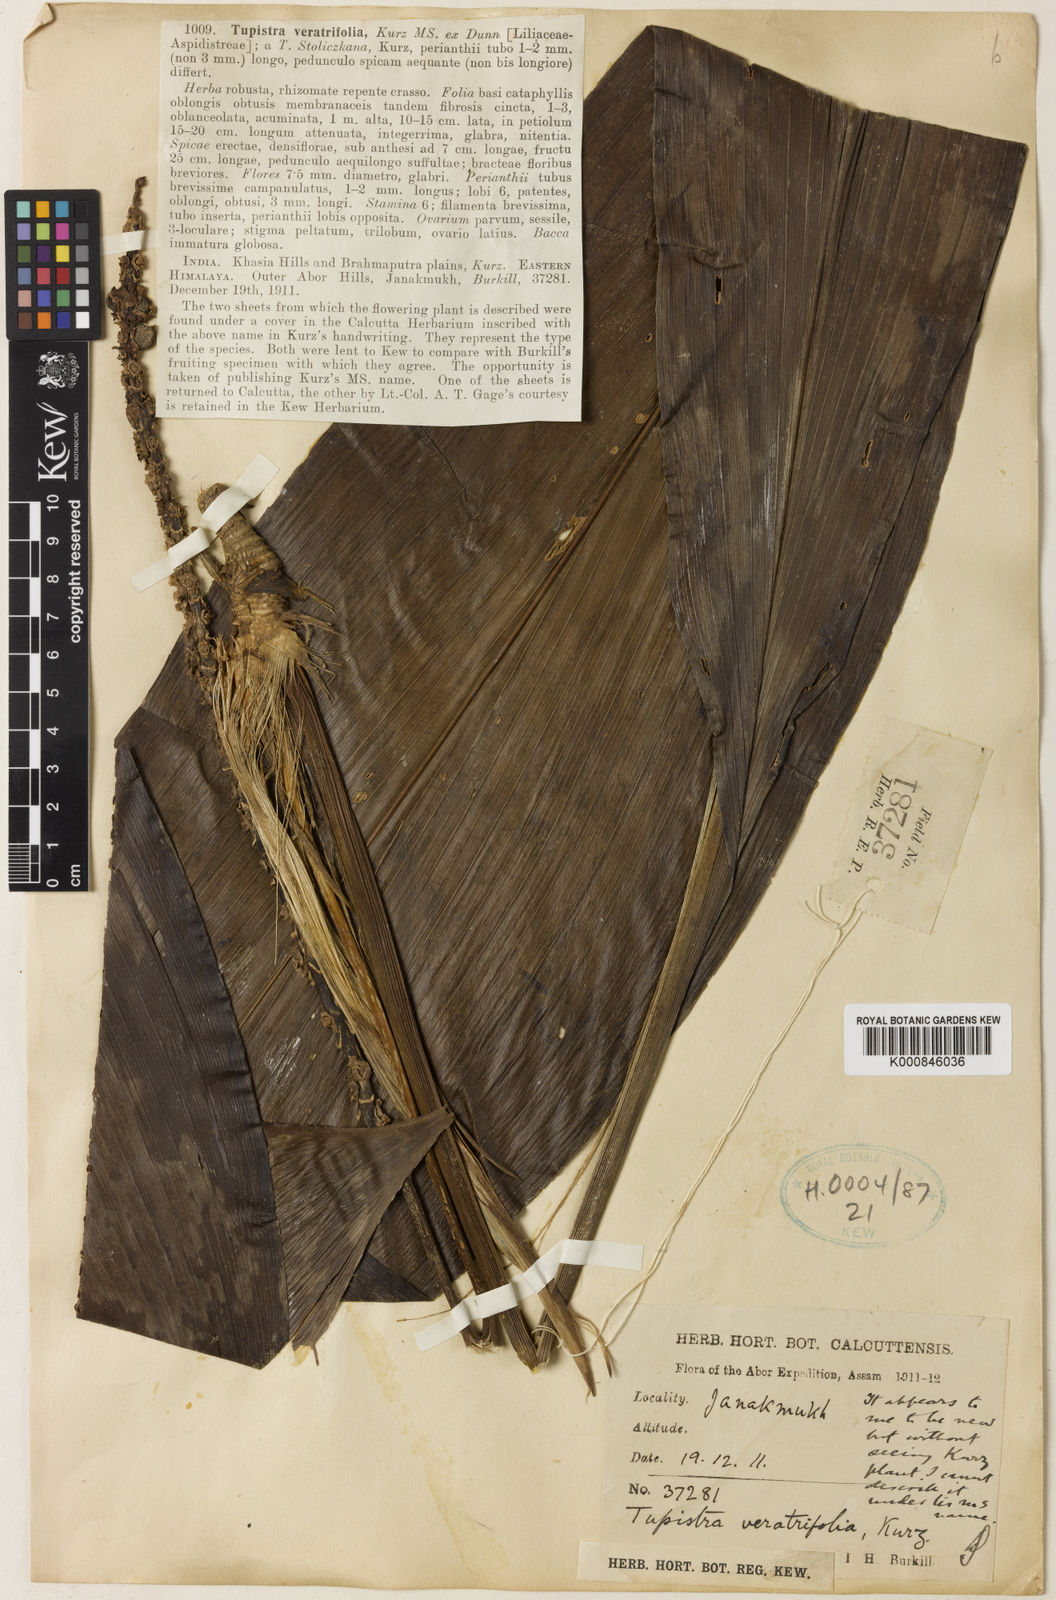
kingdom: Plantae
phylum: Tracheophyta
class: Liliopsida
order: Asparagales
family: Asparagaceae
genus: Tupistra
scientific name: Tupistra stoliczana
